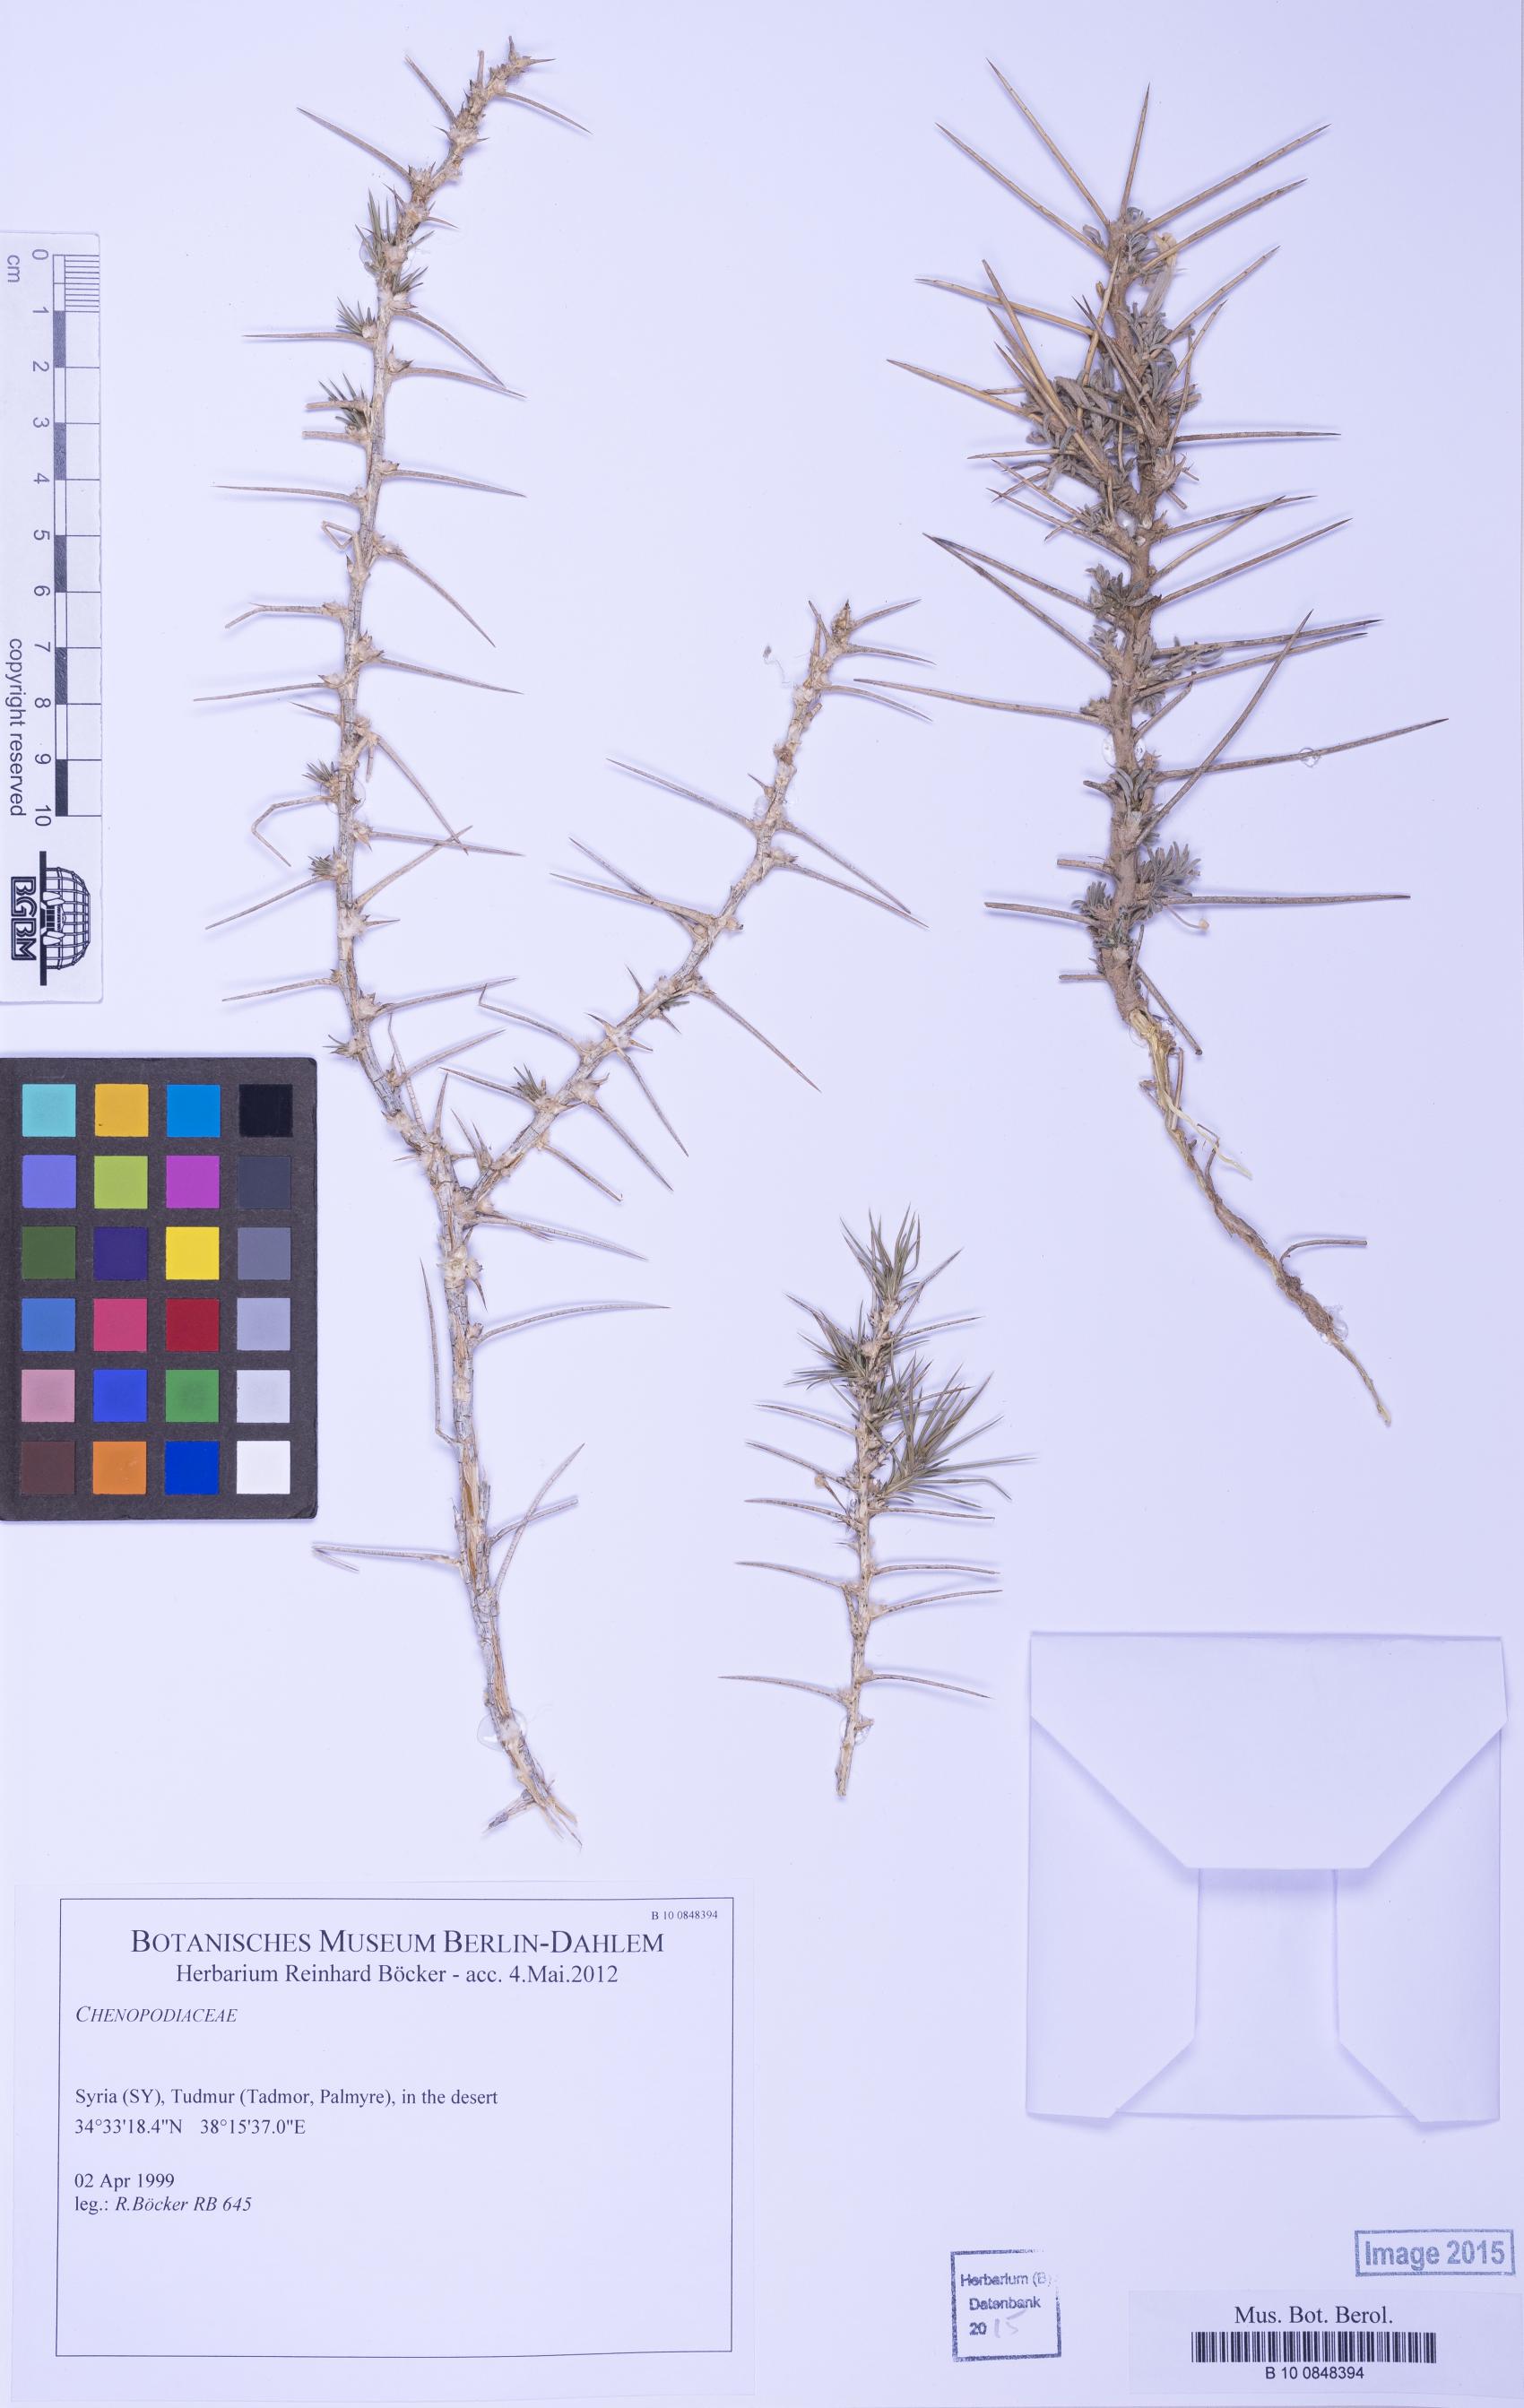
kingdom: Plantae
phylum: Tracheophyta
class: Magnoliopsida
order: Caryophyllales
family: Amaranthaceae
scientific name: Amaranthaceae
